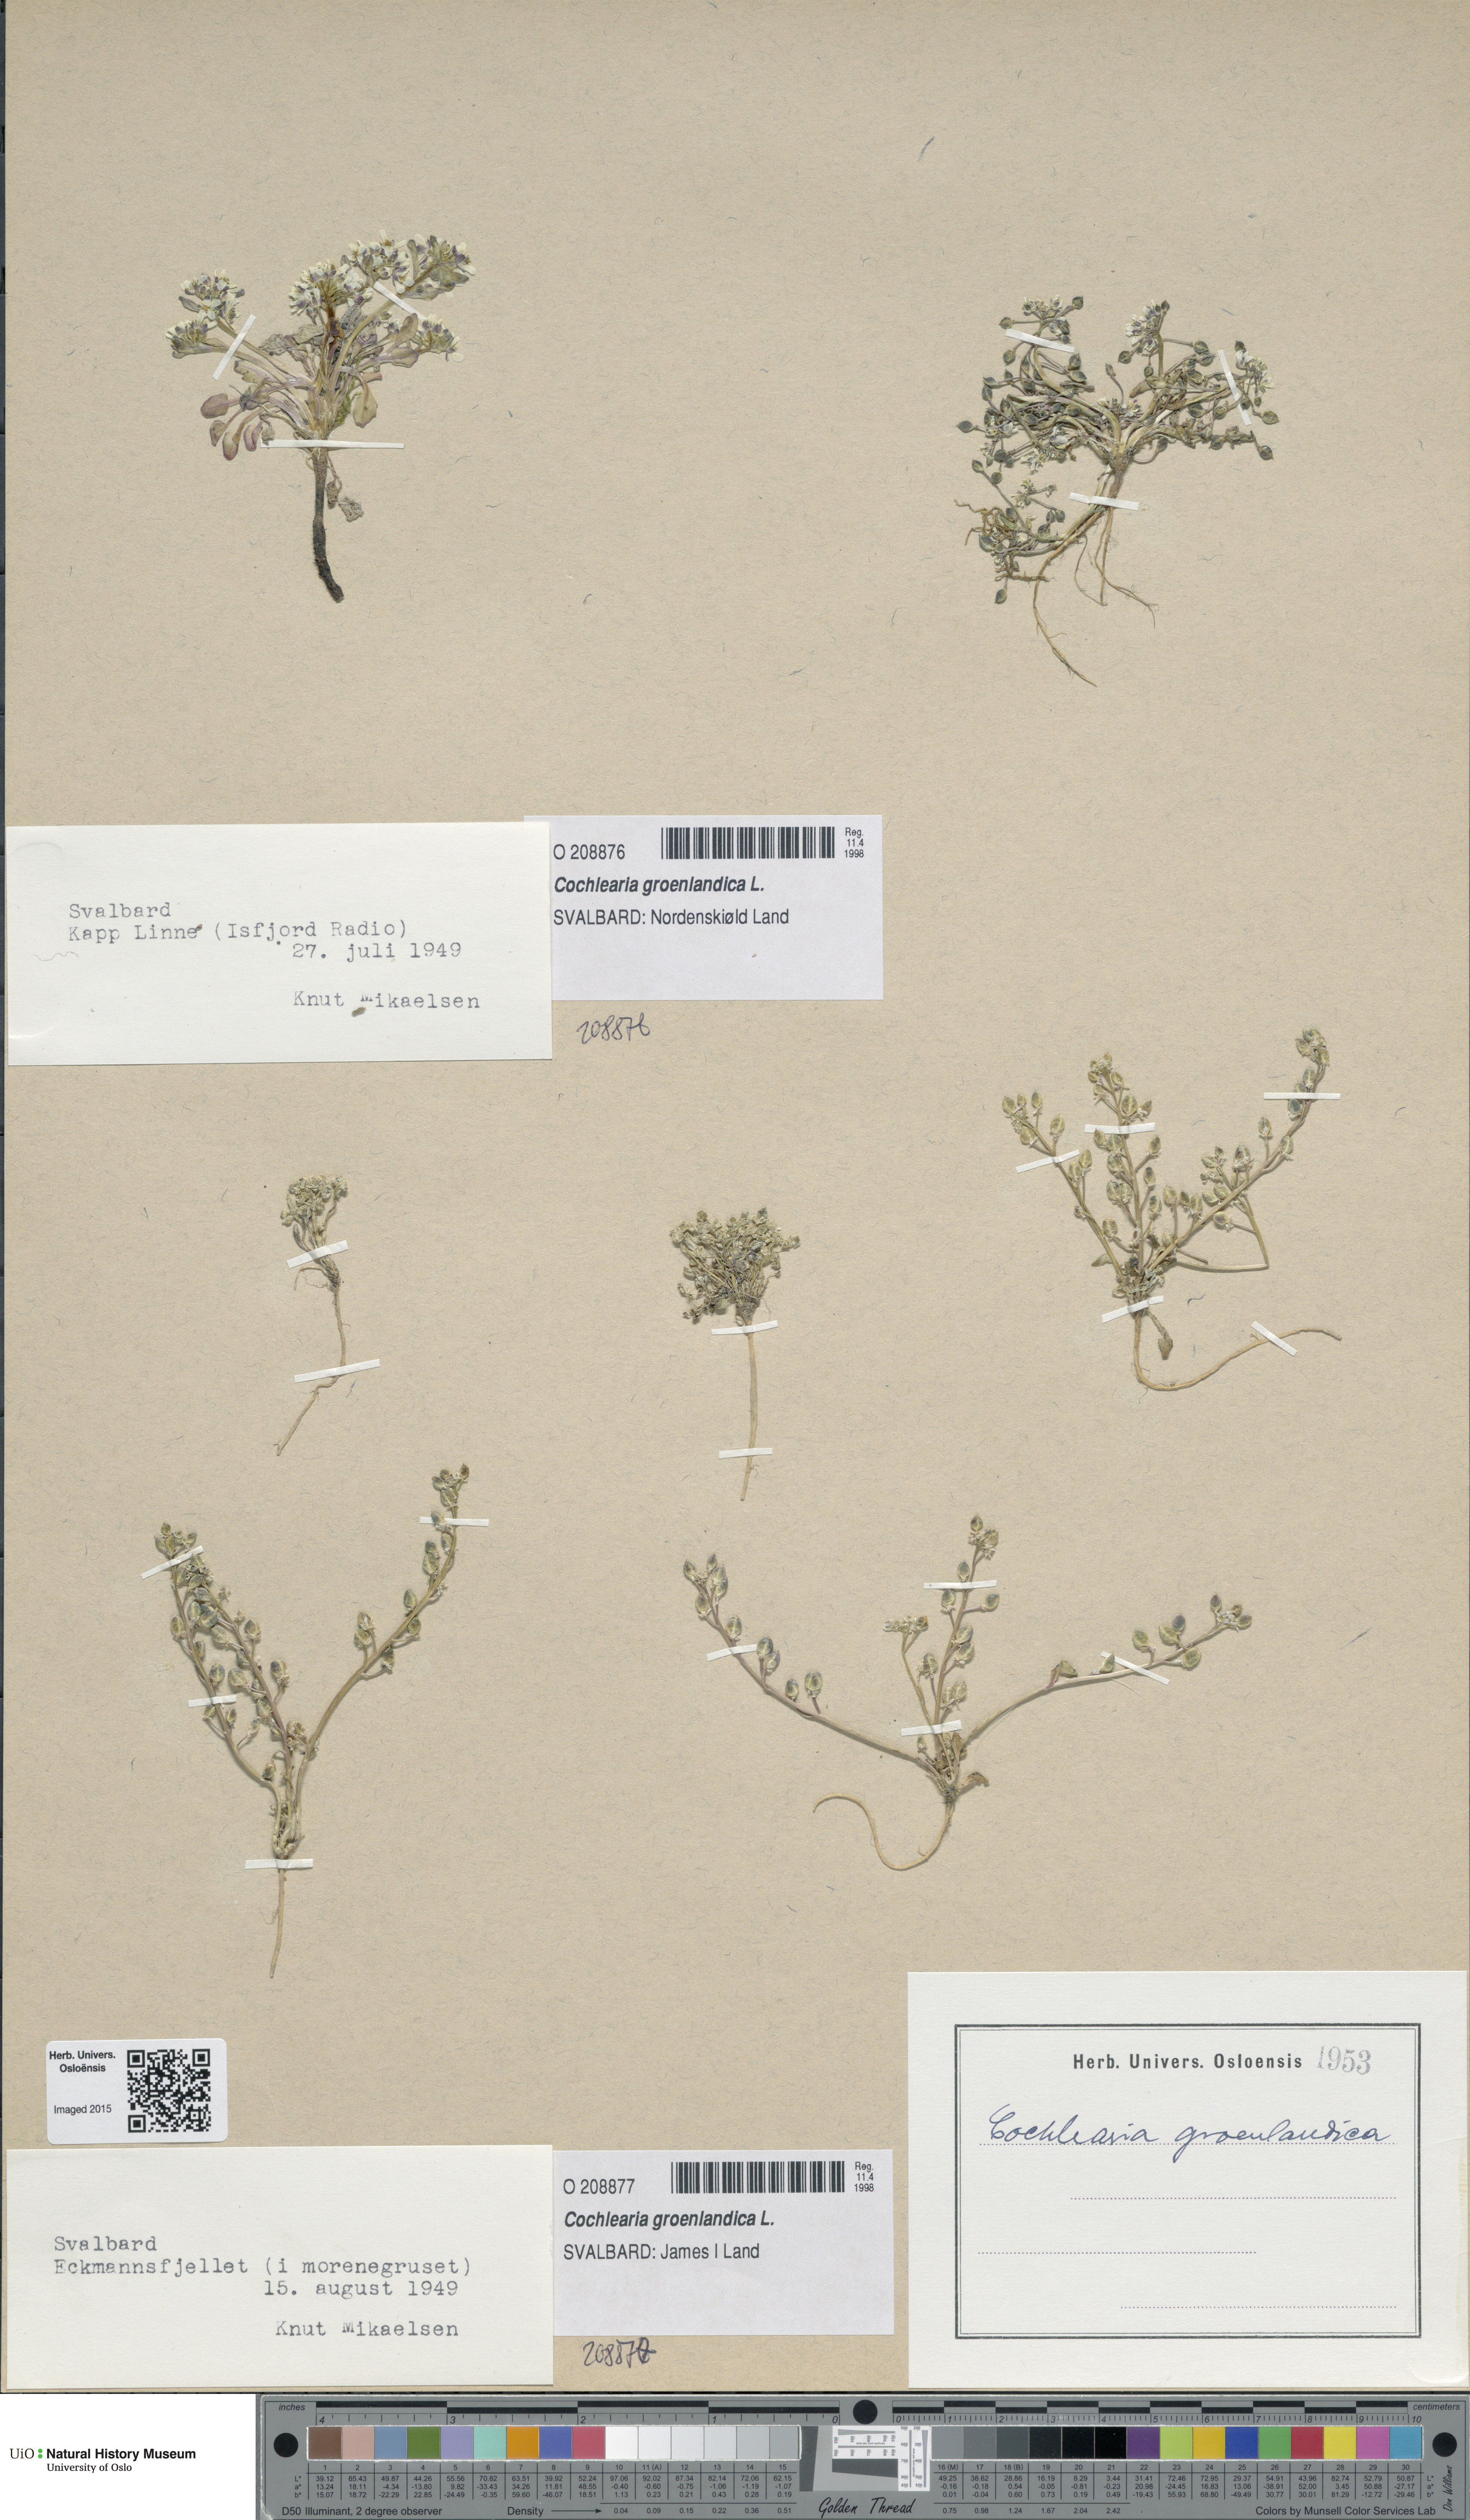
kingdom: Plantae
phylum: Tracheophyta
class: Magnoliopsida
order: Brassicales
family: Brassicaceae
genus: Cochlearia
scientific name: Cochlearia groenlandica
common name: Danish scurvygrass
